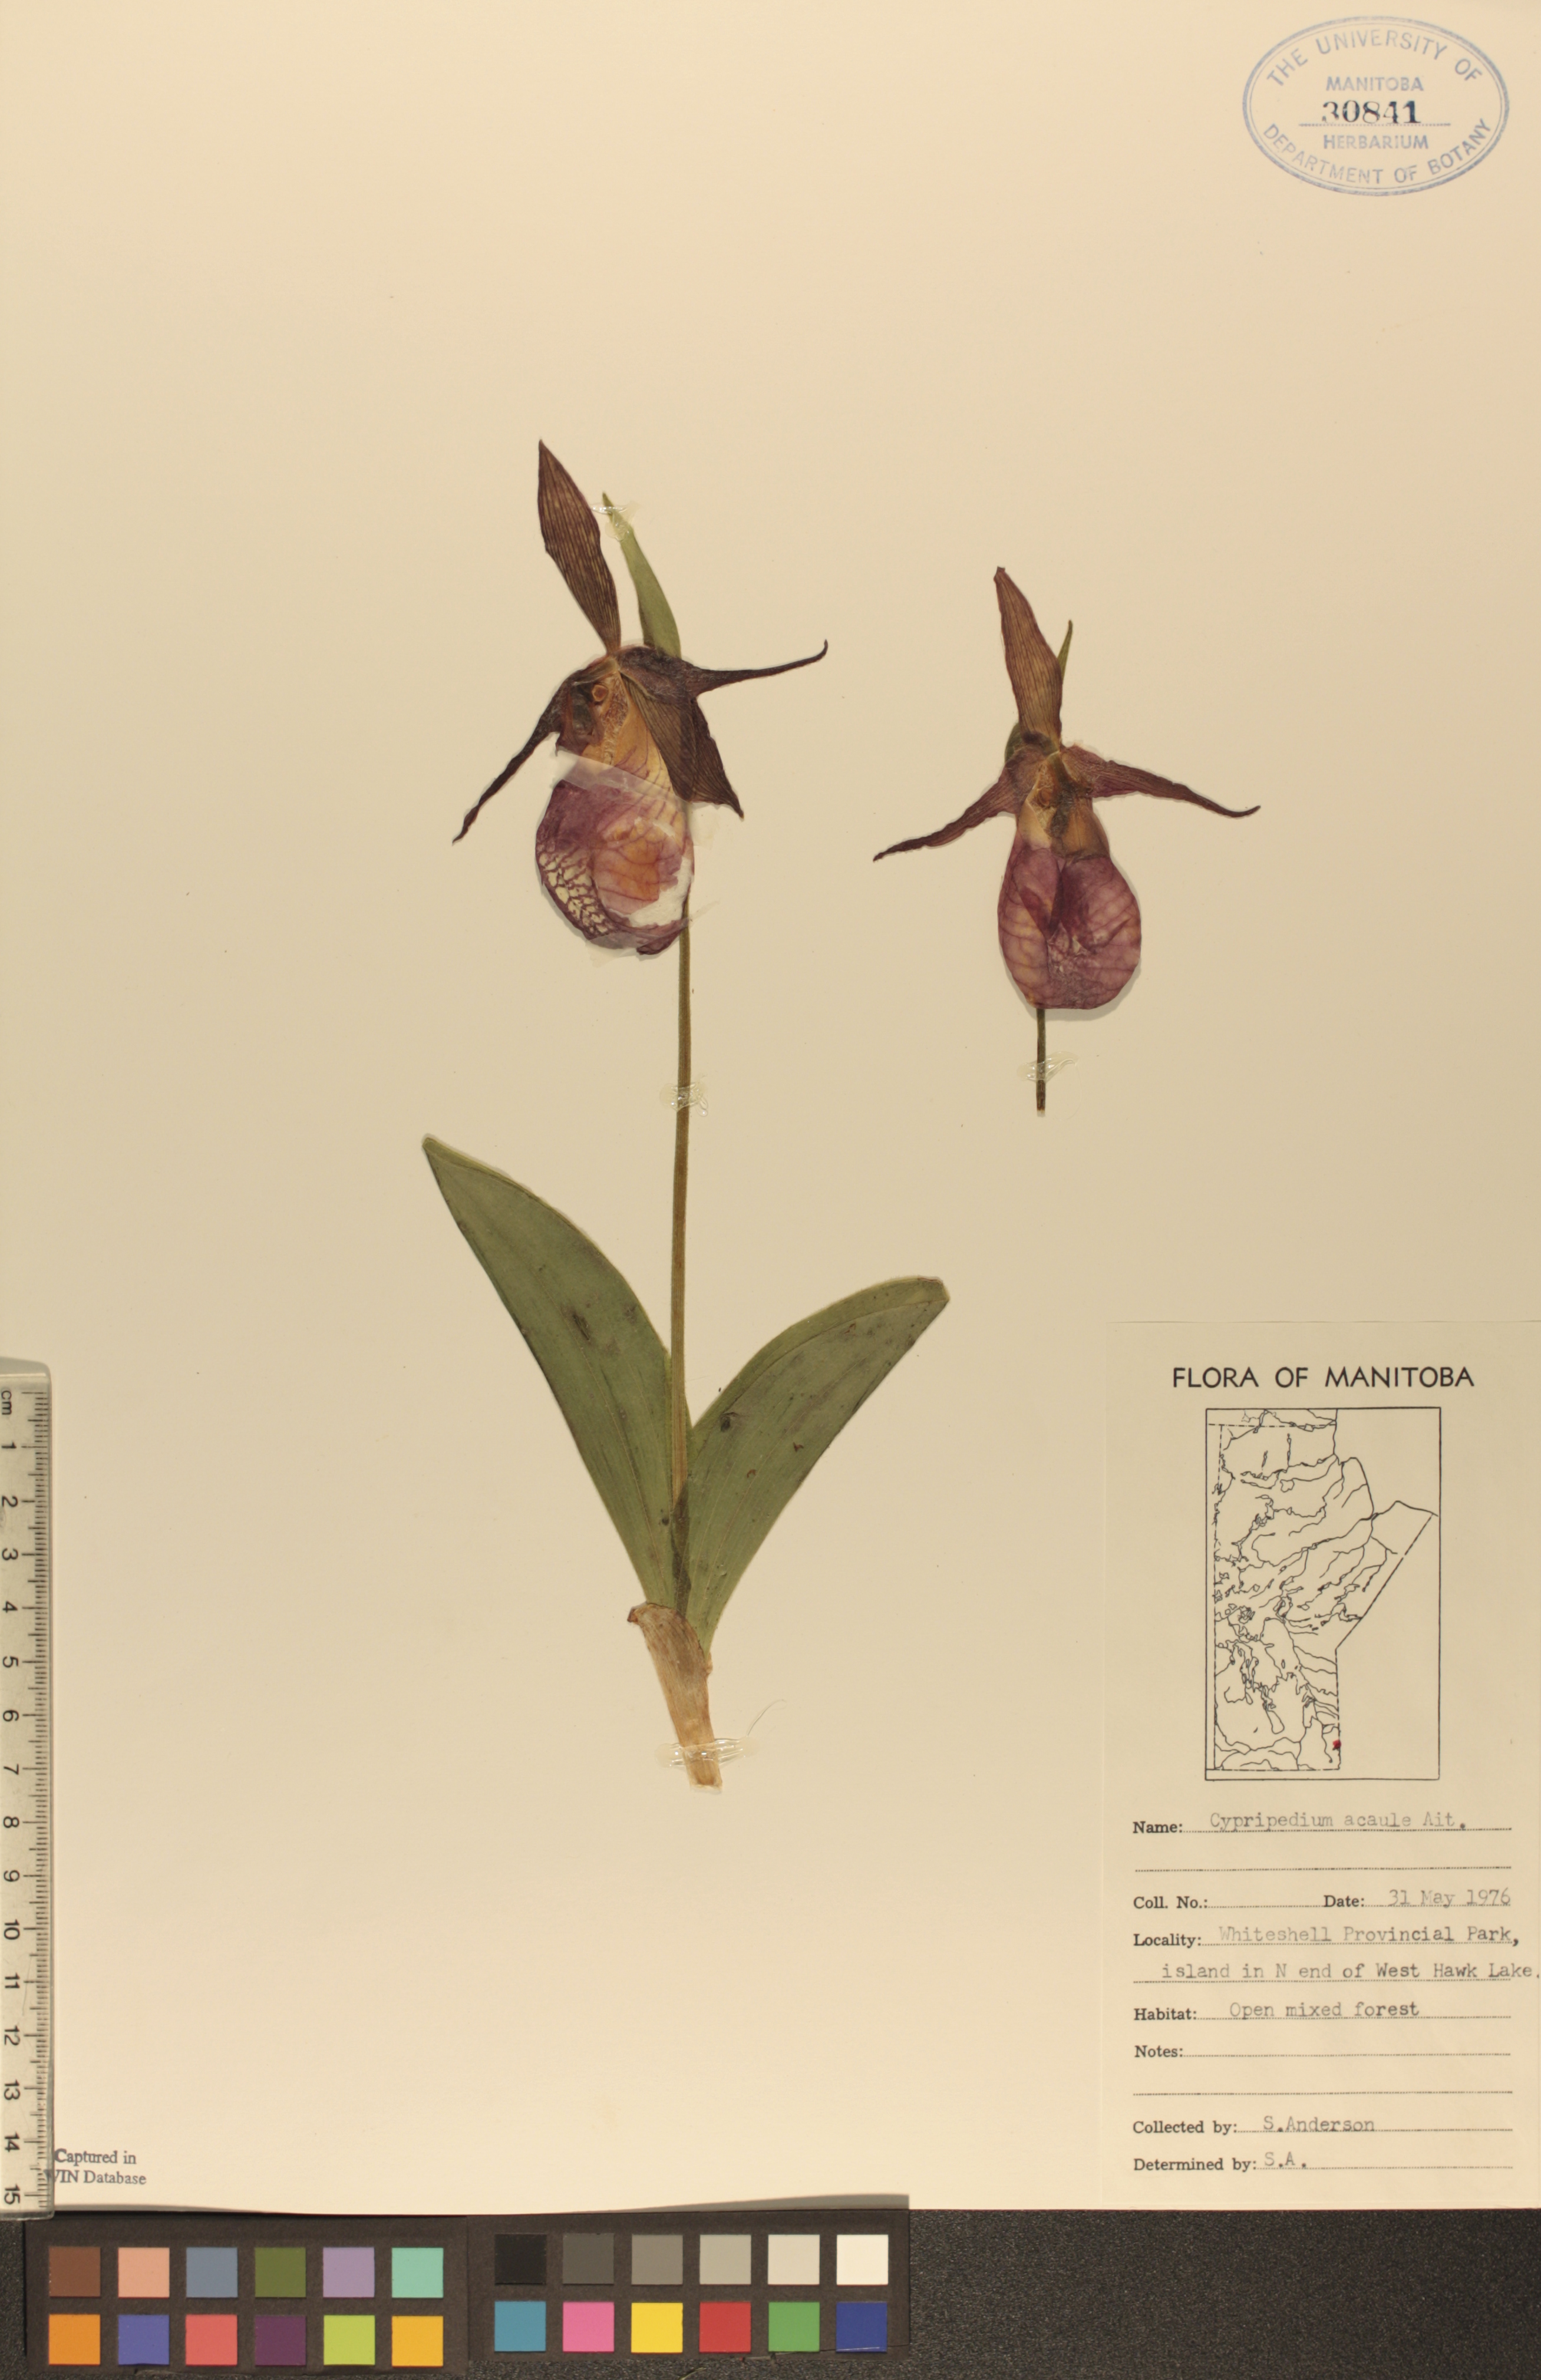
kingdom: Plantae
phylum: Tracheophyta
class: Liliopsida
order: Asparagales
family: Orchidaceae
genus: Cypripedium
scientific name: Cypripedium acaule
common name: Pink lady's-slipper
